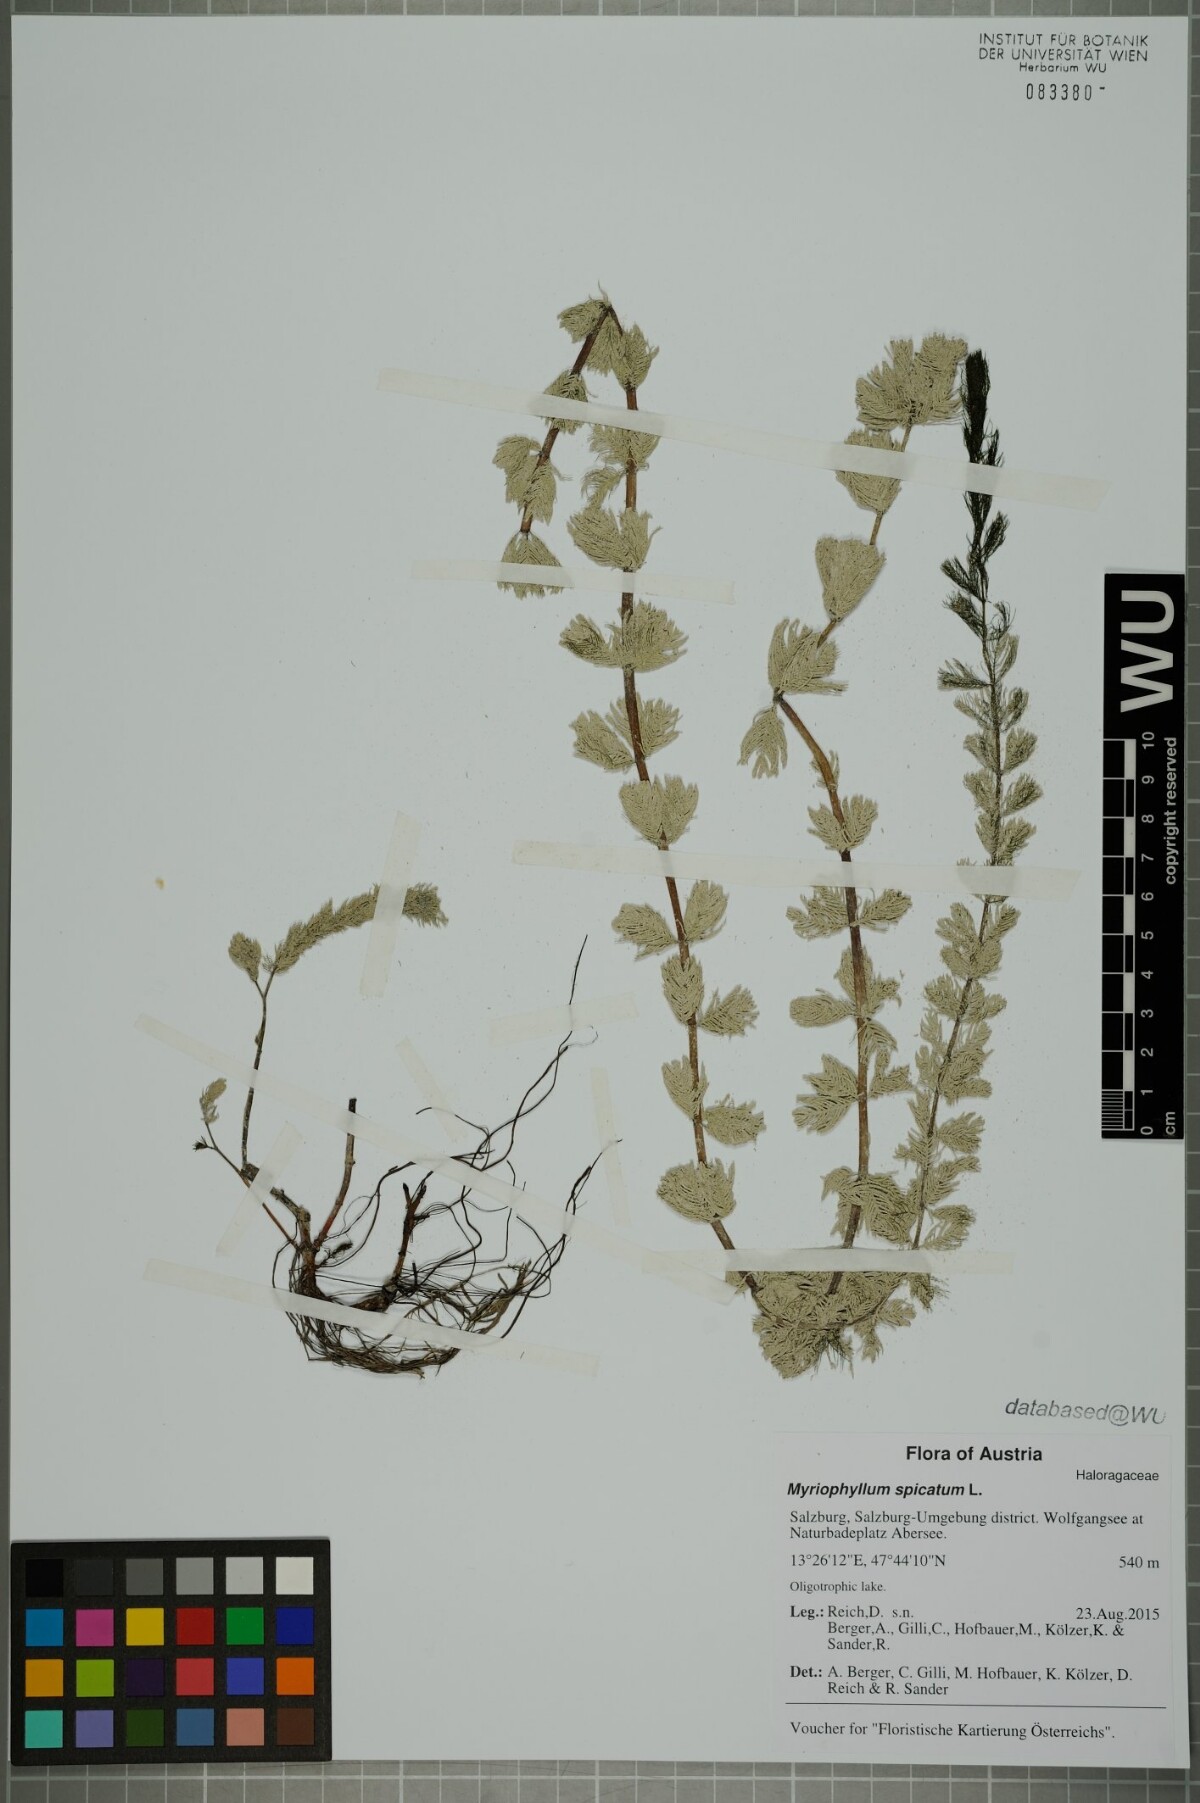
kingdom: Plantae
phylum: Tracheophyta
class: Magnoliopsida
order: Saxifragales
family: Haloragaceae
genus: Myriophyllum
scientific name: Myriophyllum spicatum
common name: Spiked water-milfoil
